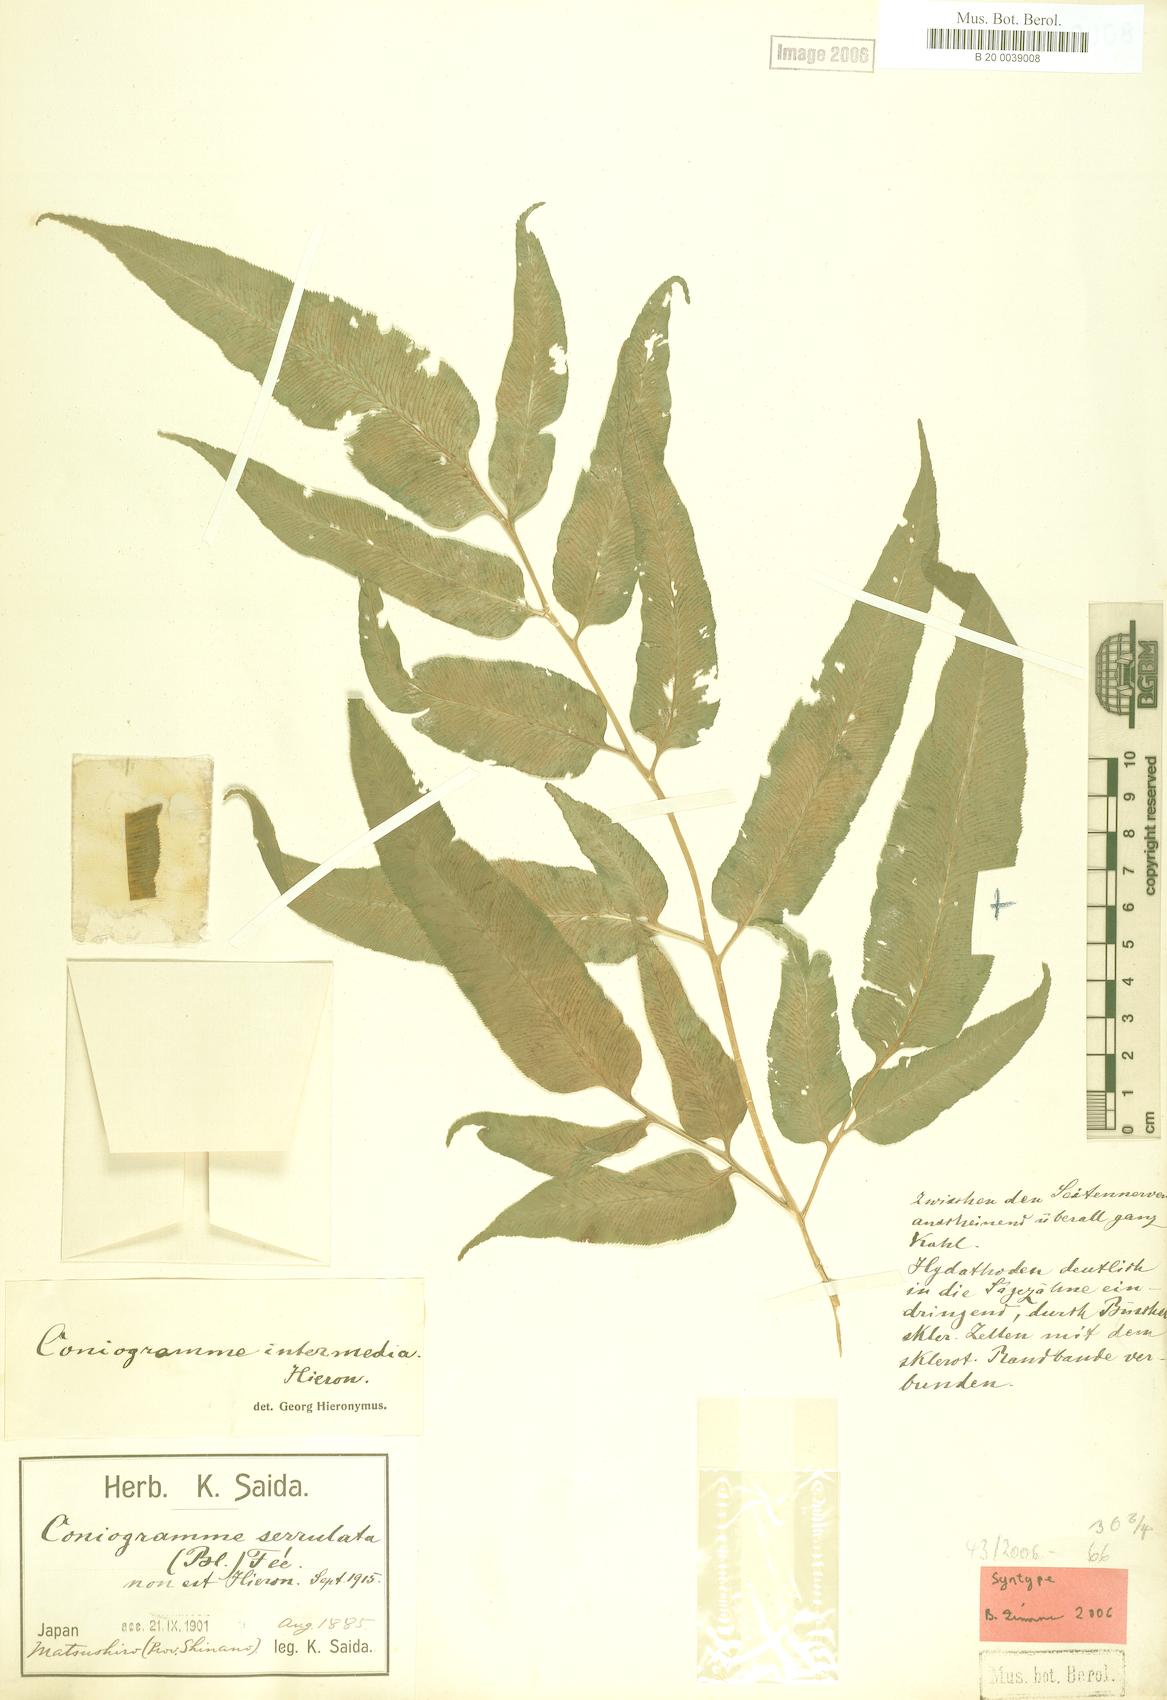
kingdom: Plantae
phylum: Tracheophyta
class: Polypodiopsida
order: Polypodiales
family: Pteridaceae
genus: Coniogramme
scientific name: Coniogramme intermedia
